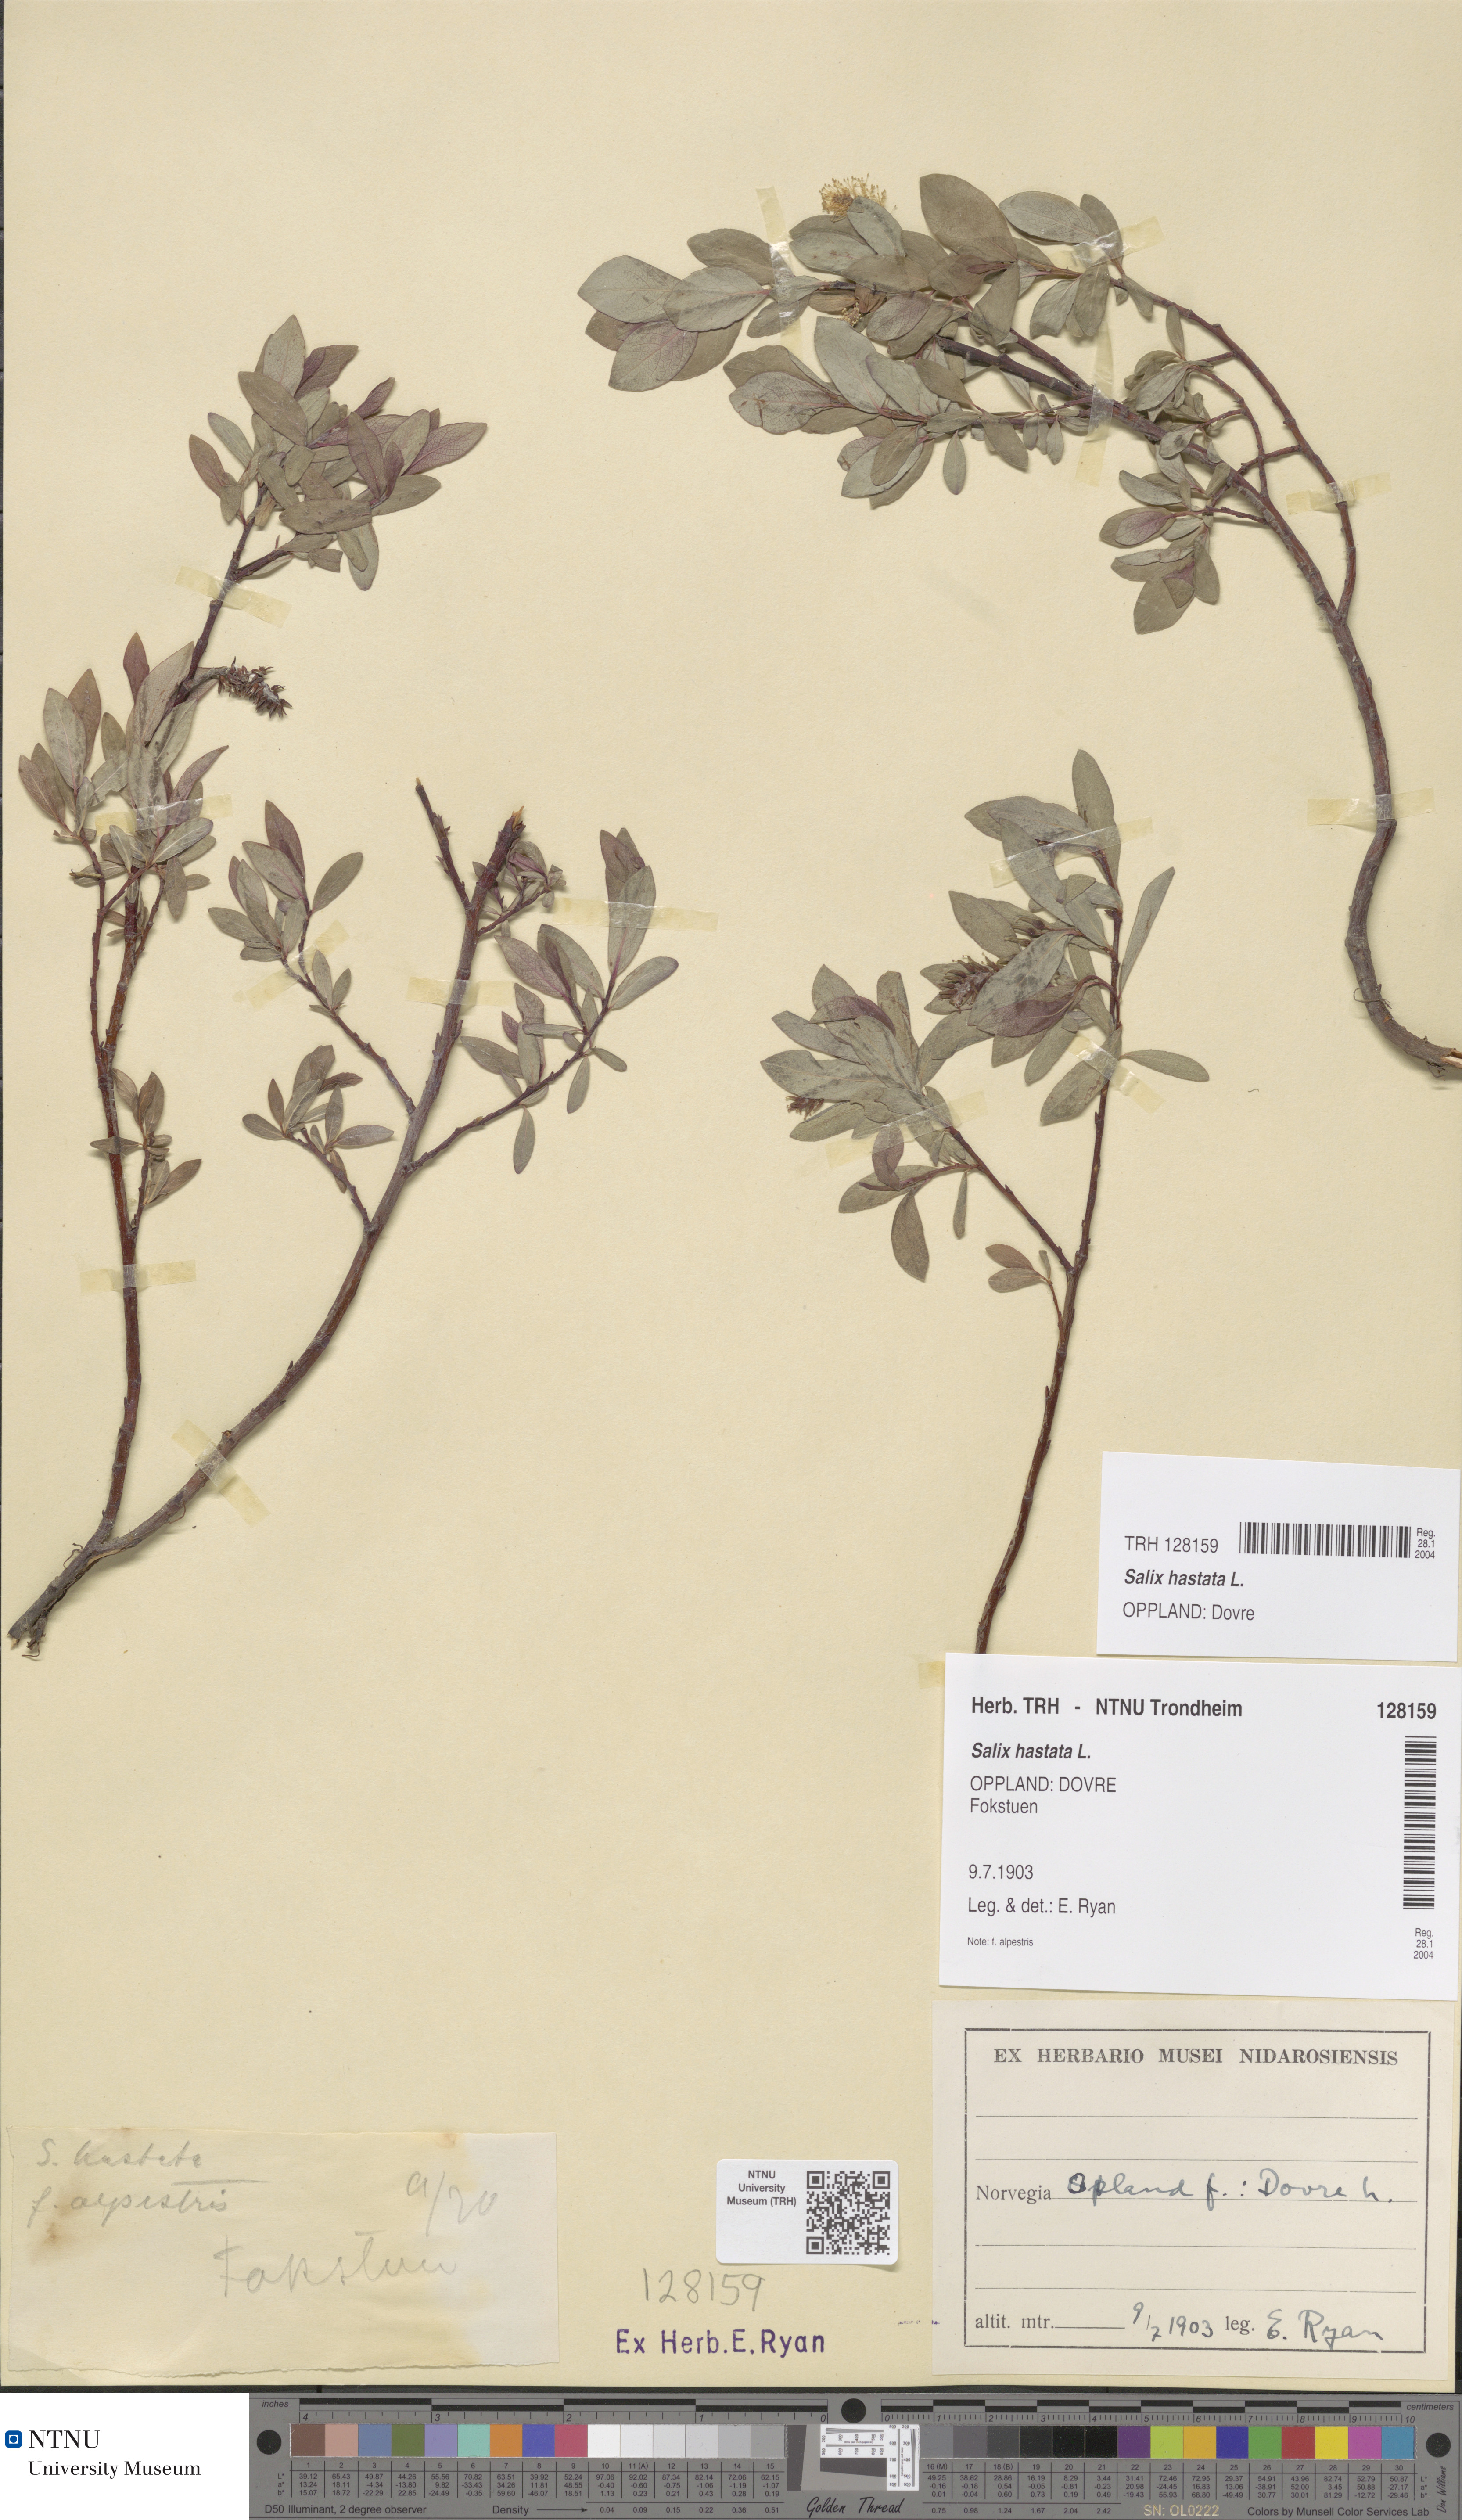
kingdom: Plantae
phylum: Tracheophyta
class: Magnoliopsida
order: Malpighiales
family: Salicaceae
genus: Salix
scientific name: Salix hastata
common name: Halberd willow
